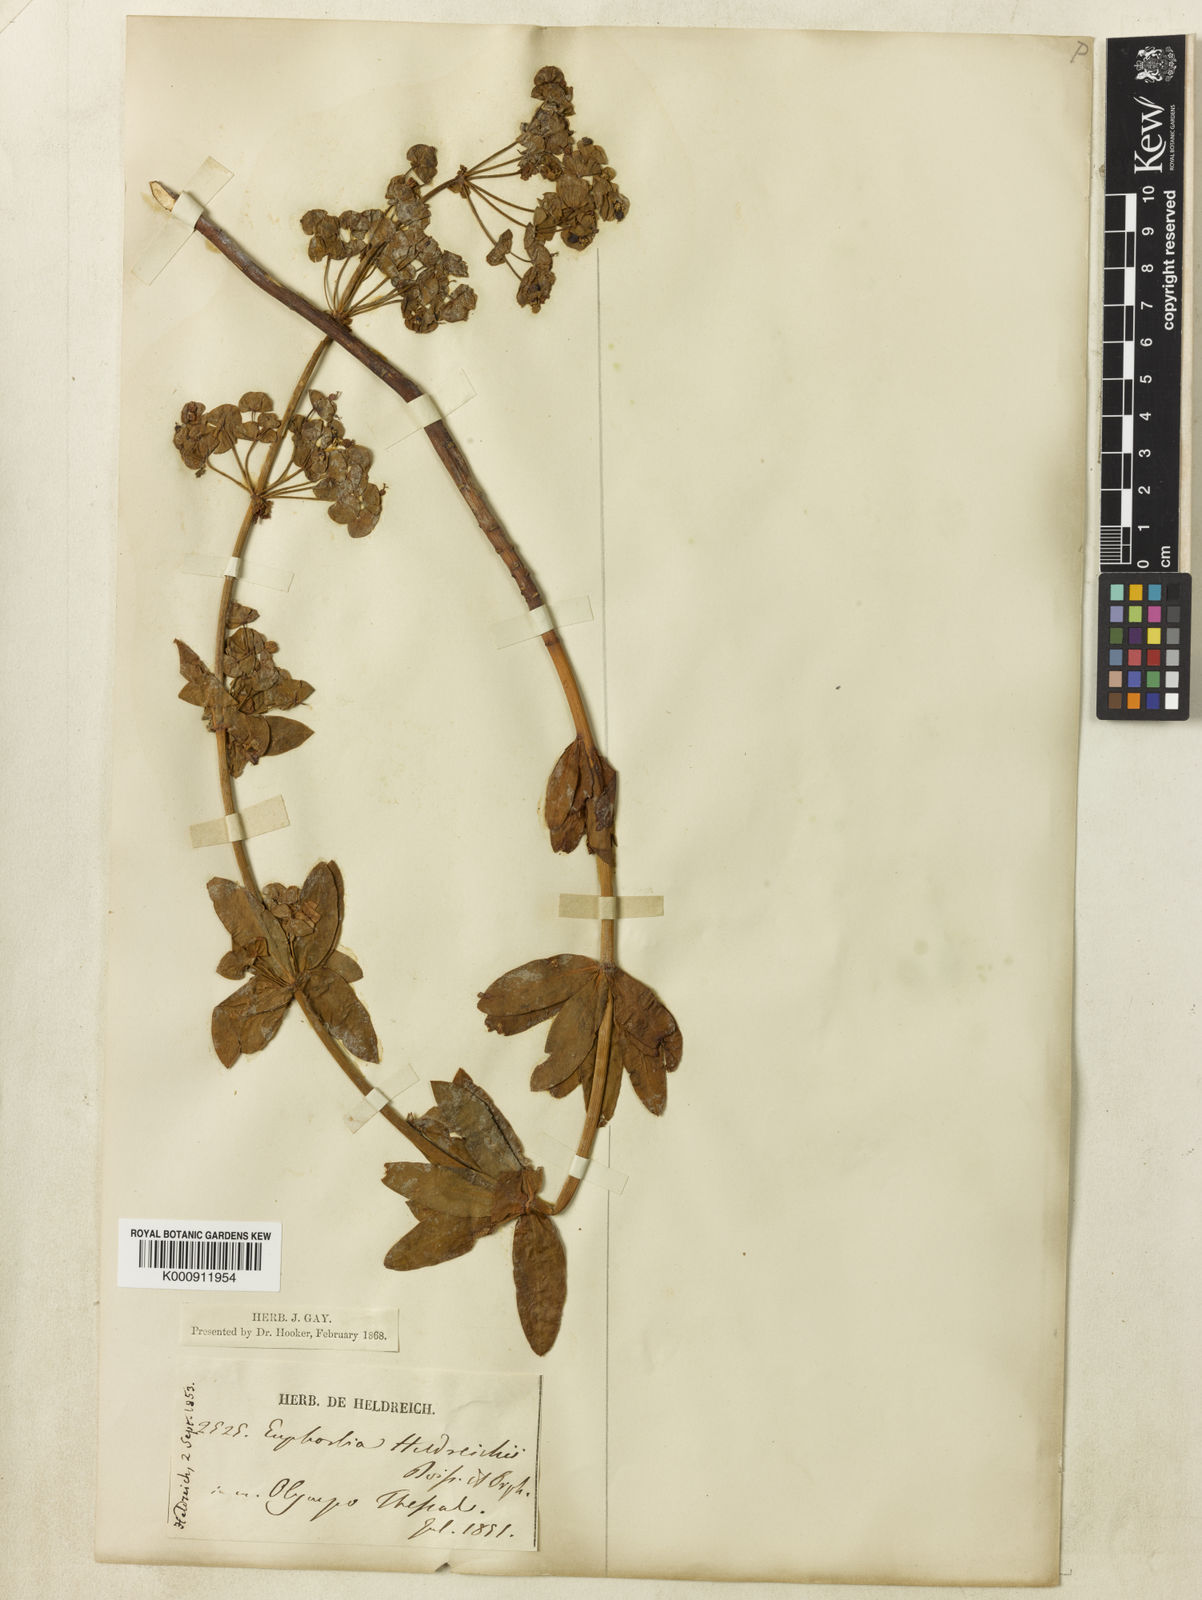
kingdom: Plantae
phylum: Tracheophyta
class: Magnoliopsida
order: Malpighiales
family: Euphorbiaceae
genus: Euphorbia
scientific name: Euphorbia heldreichii
